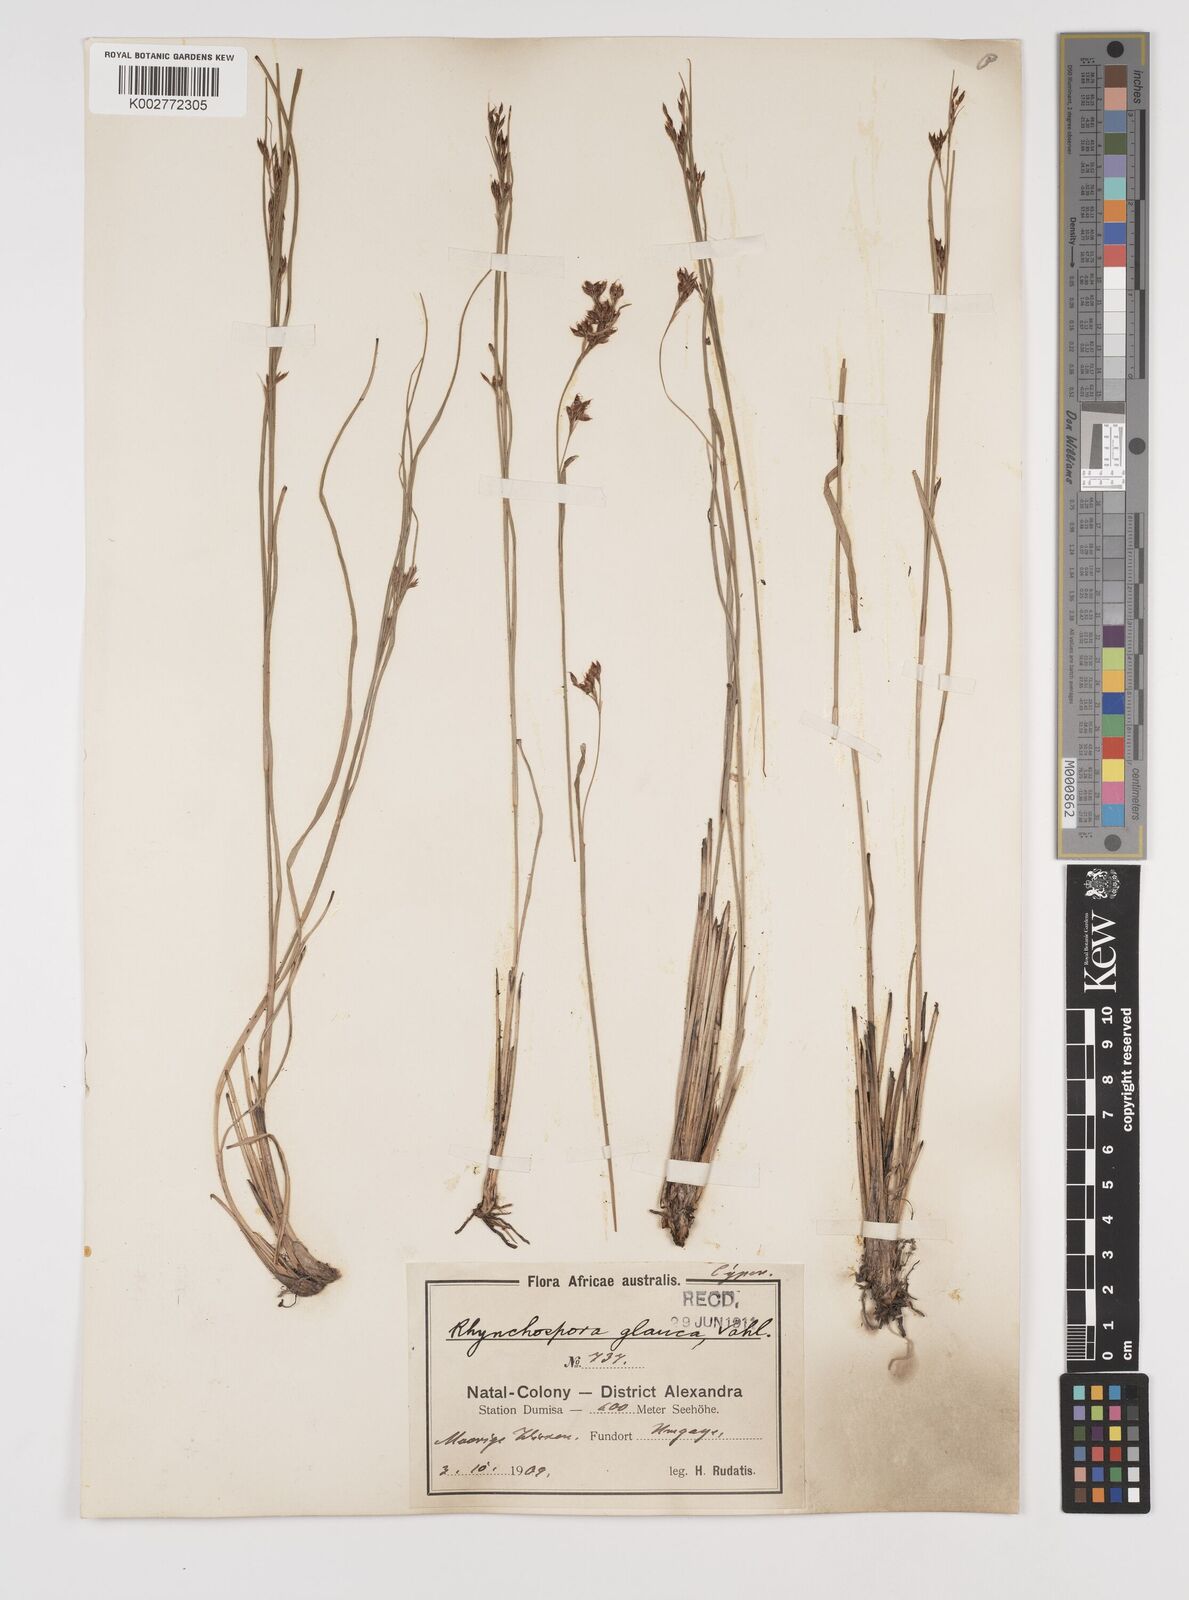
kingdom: Plantae
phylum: Tracheophyta
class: Liliopsida
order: Poales
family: Cyperaceae
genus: Rhynchospora
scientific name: Rhynchospora rugosa
